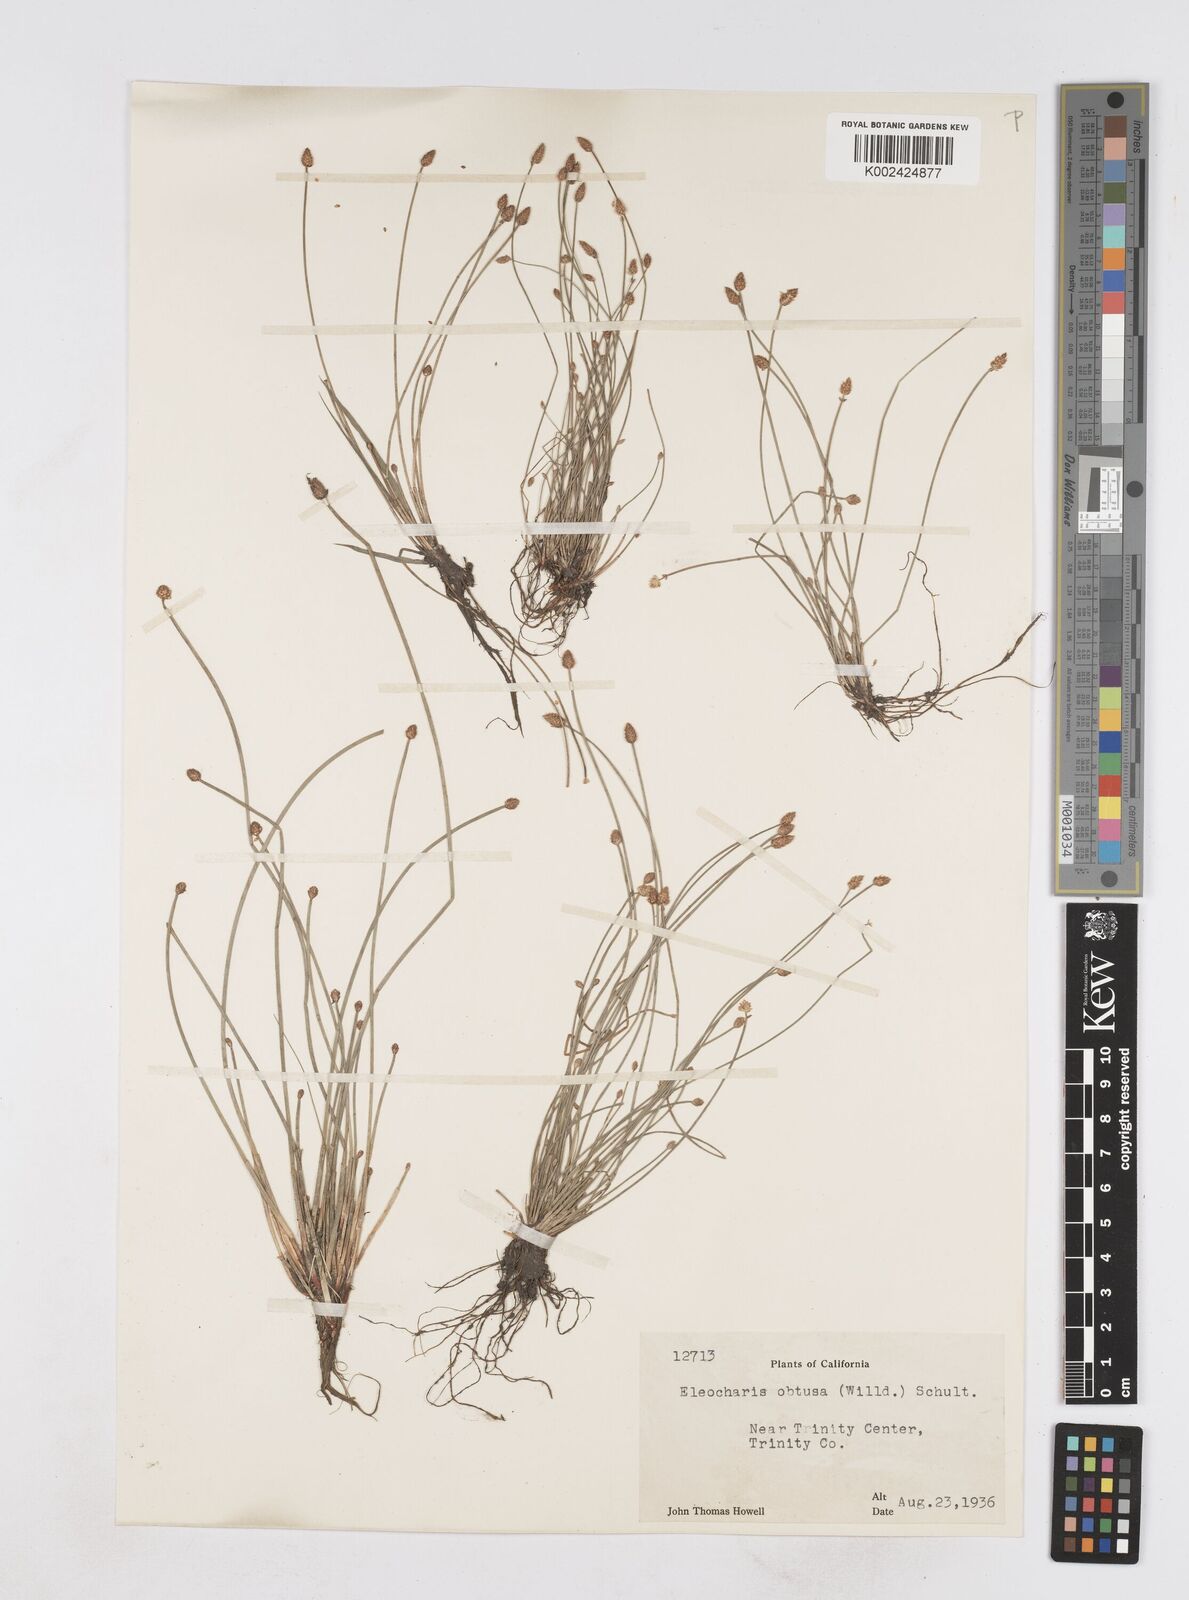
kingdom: Plantae
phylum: Tracheophyta
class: Liliopsida
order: Poales
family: Cyperaceae
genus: Eleocharis
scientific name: Eleocharis obtusa
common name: Blunt spikerush
